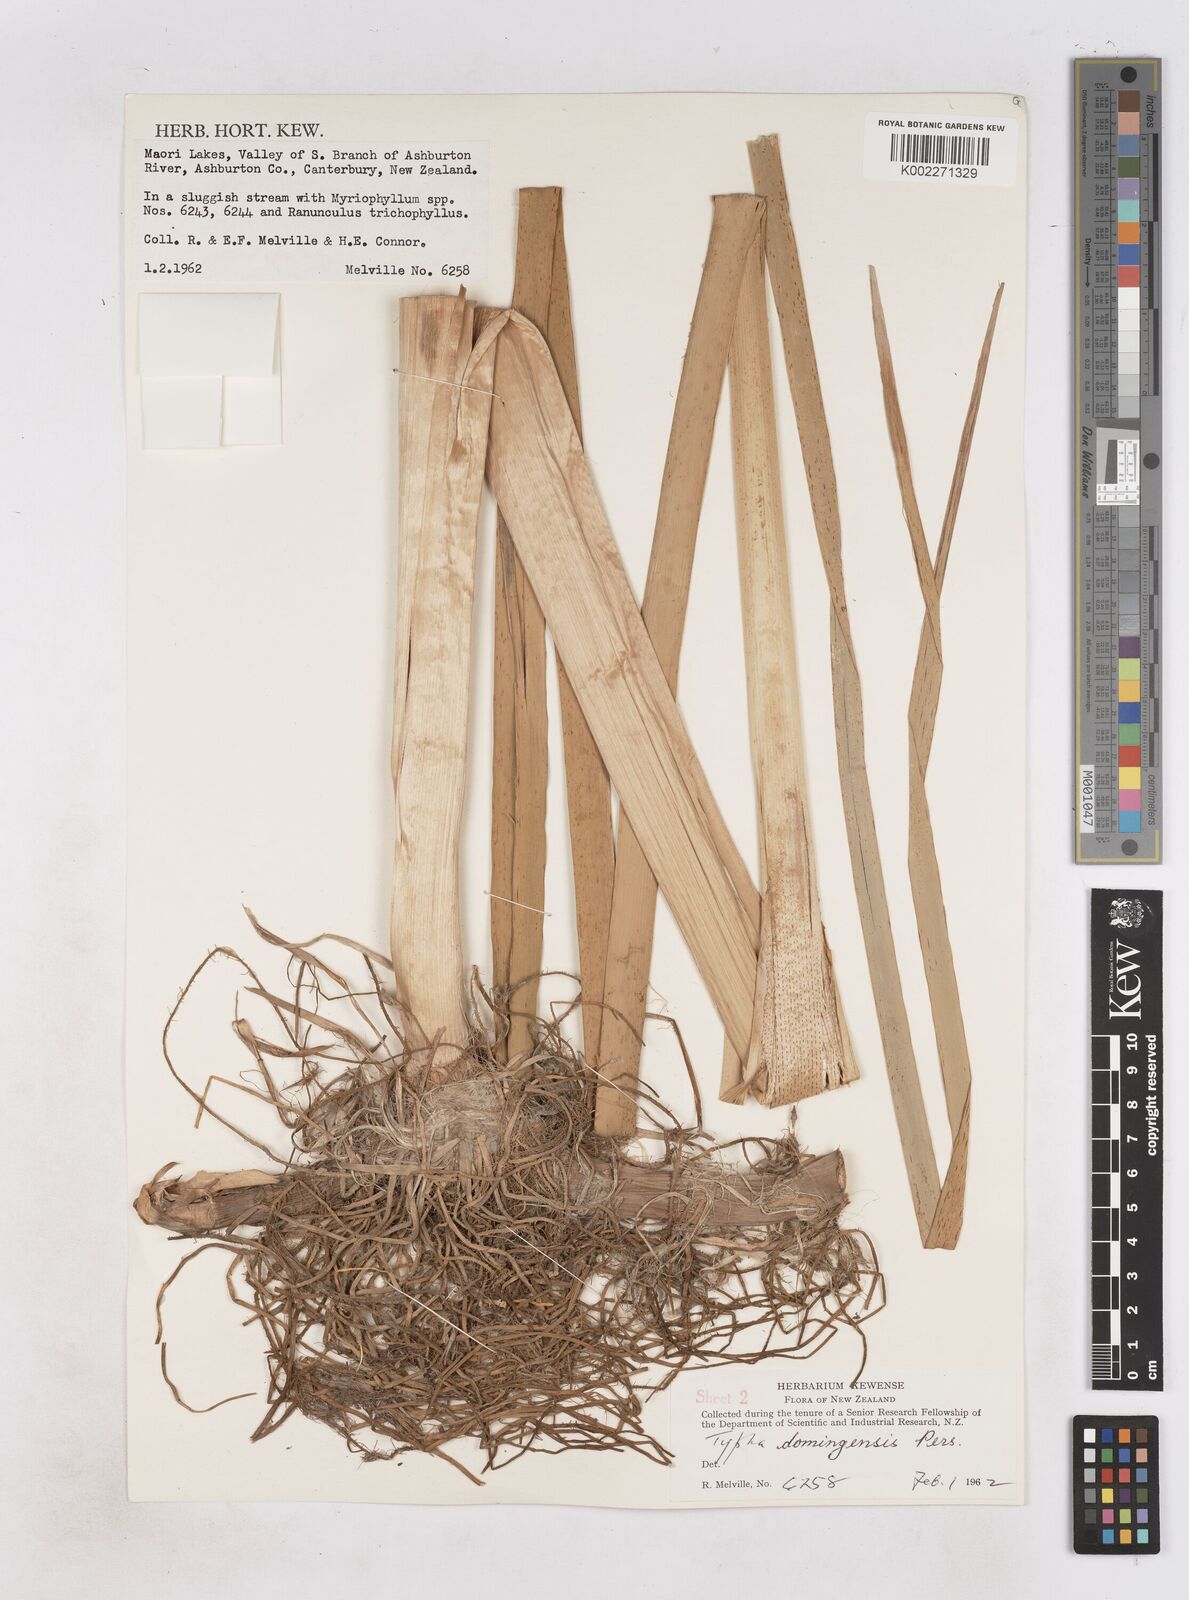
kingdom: Plantae
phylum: Tracheophyta
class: Liliopsida
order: Poales
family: Typhaceae
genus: Typha
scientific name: Typha domingensis
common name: Southern cattail
